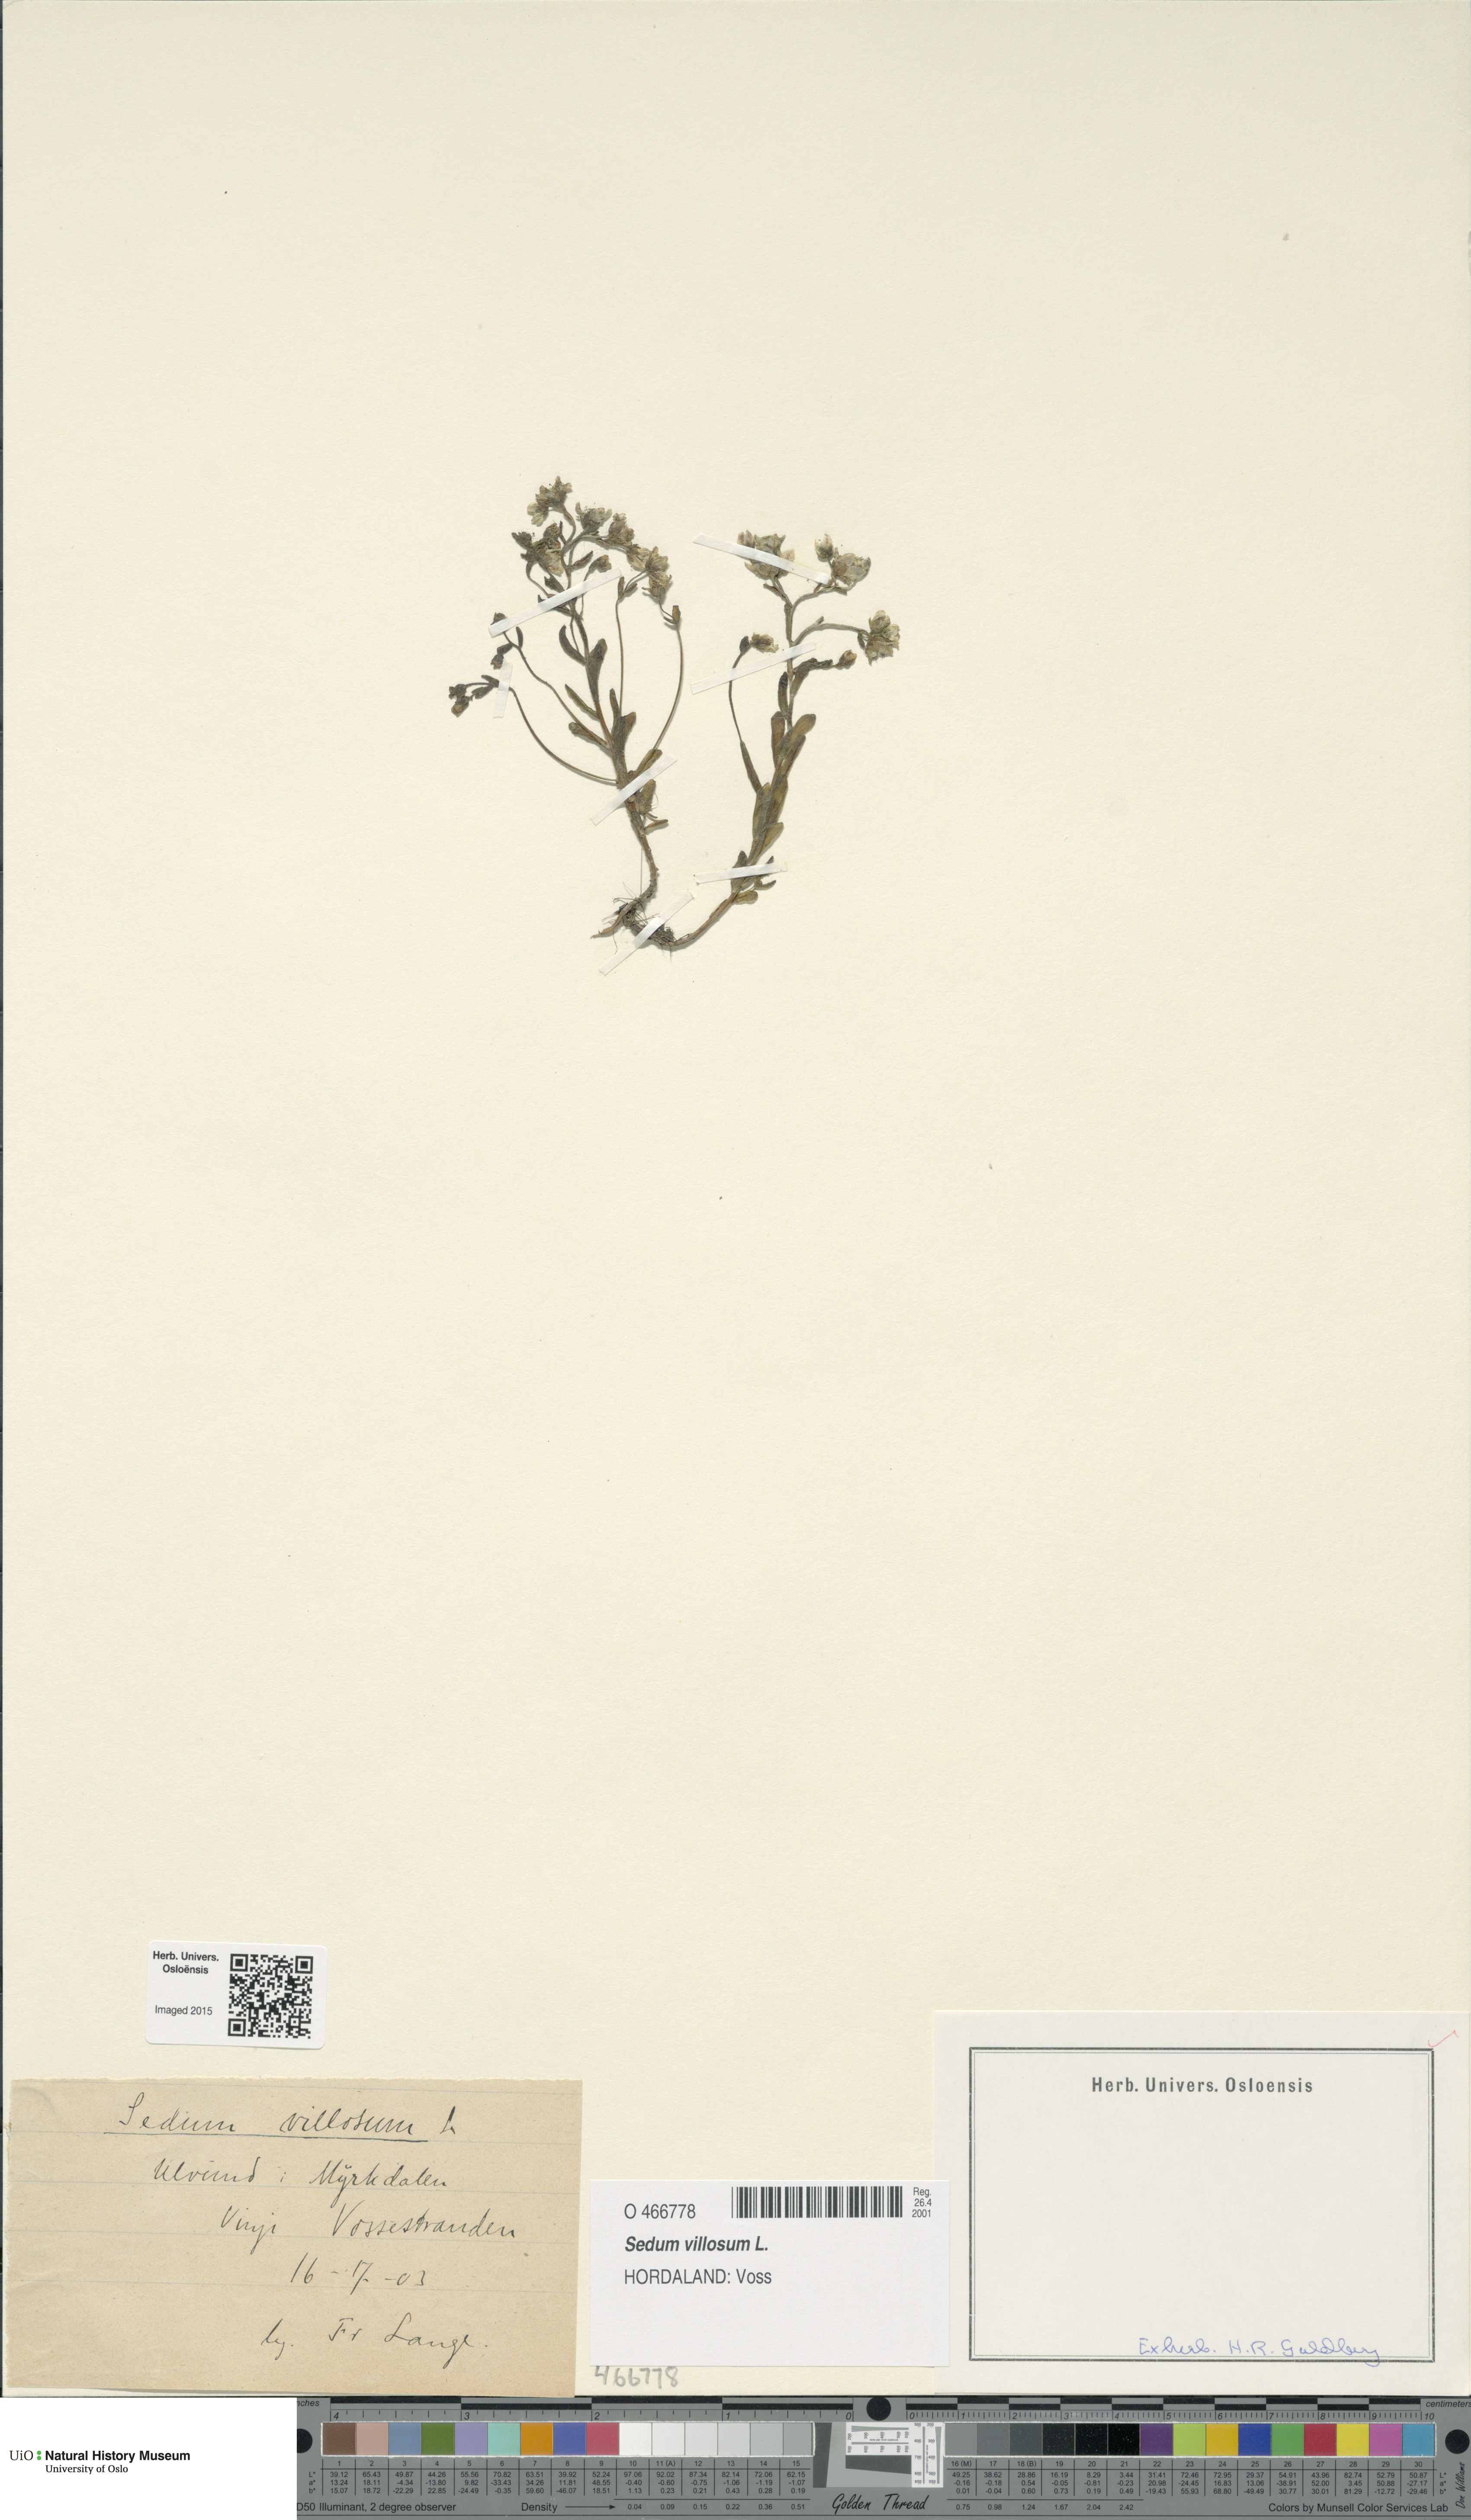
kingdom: Plantae
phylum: Tracheophyta
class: Magnoliopsida
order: Saxifragales
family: Crassulaceae
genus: Sedum
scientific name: Sedum villosum
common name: Hairy stonecrop
